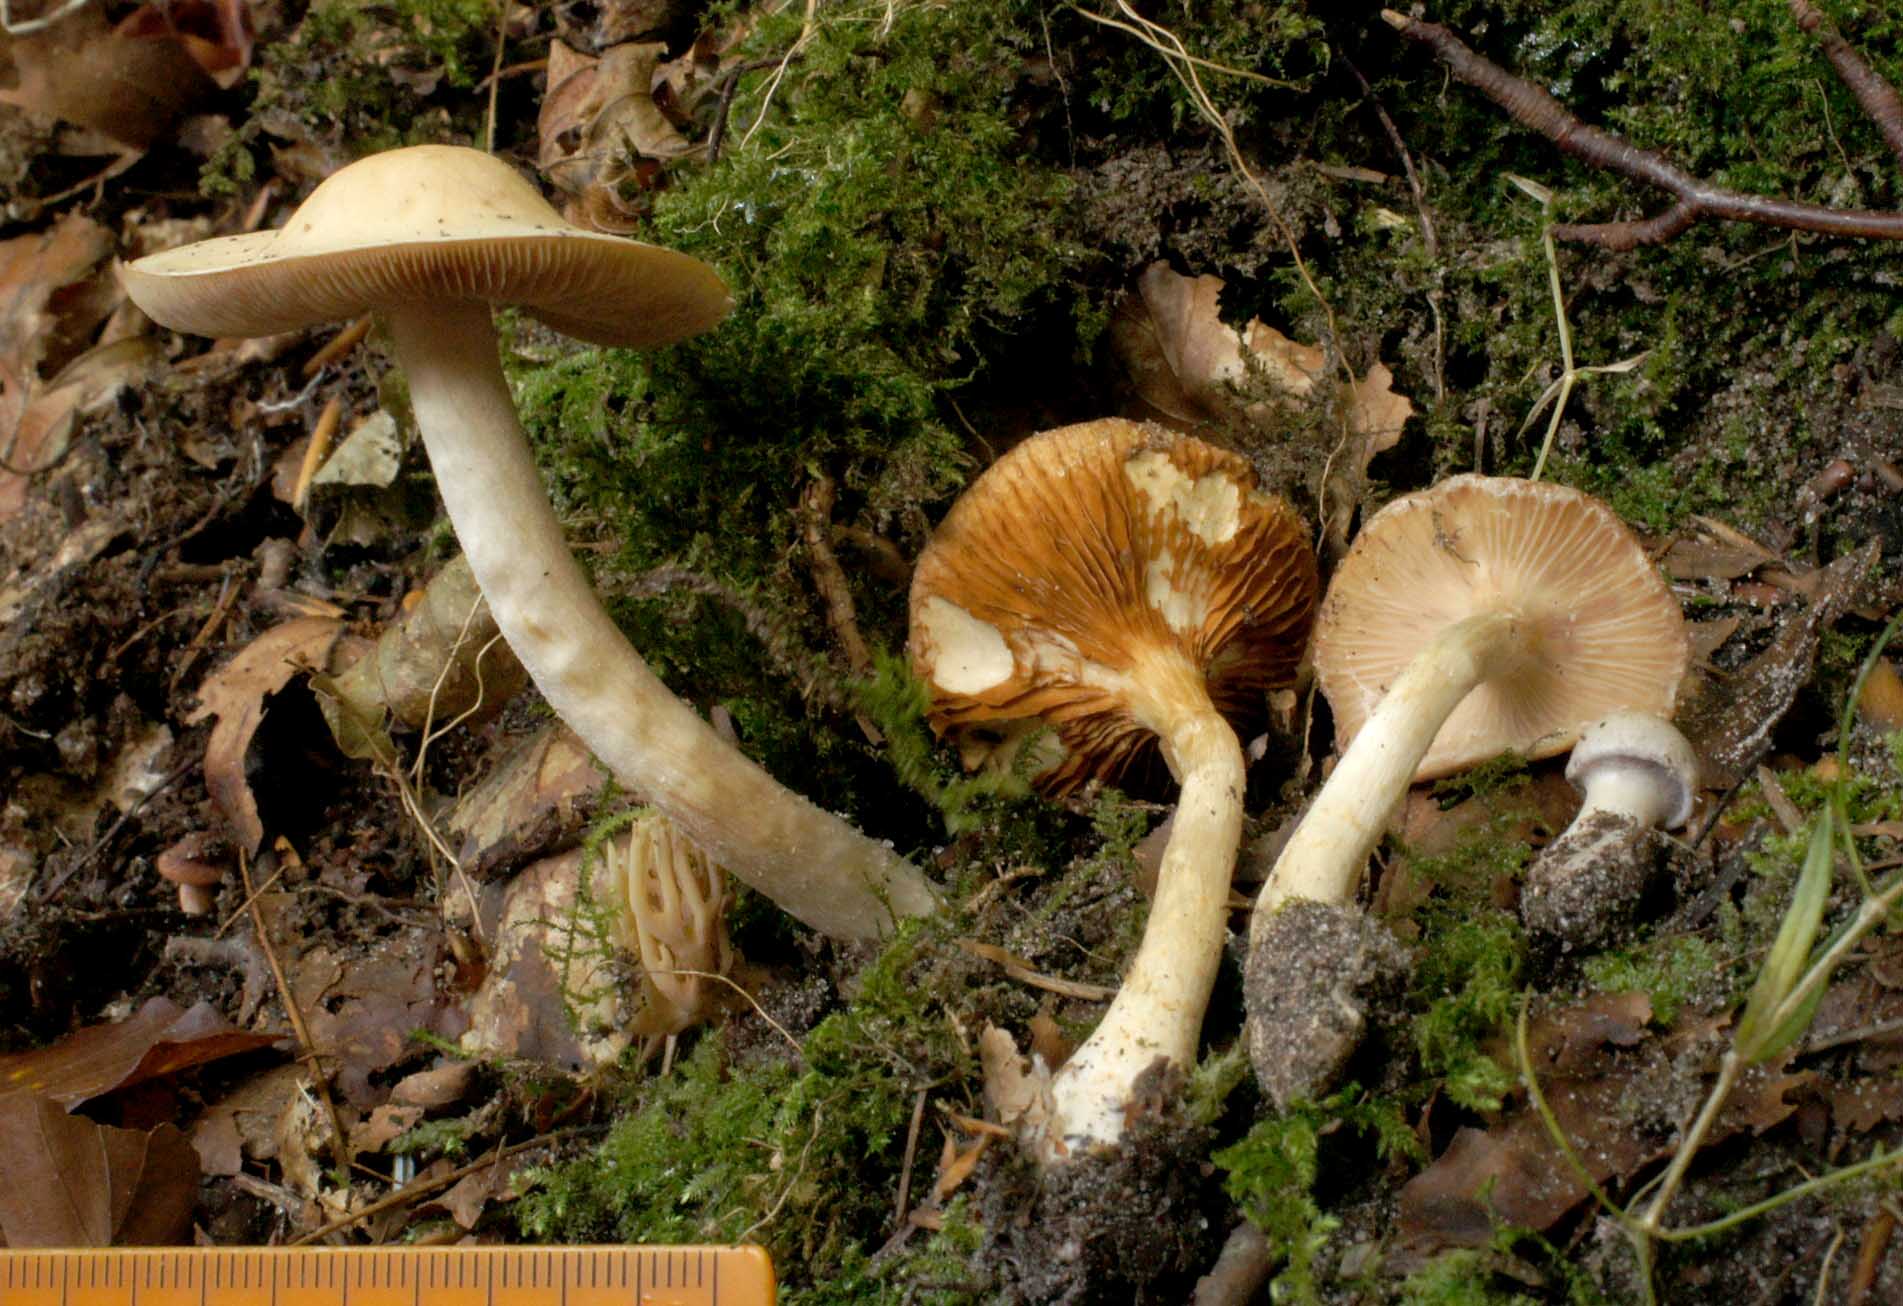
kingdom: Fungi
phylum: Basidiomycota
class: Agaricomycetes
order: Agaricales
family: Cortinariaceae
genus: Thaxterogaster
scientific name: Thaxterogaster barbatus
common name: elfenbens-slørhat
